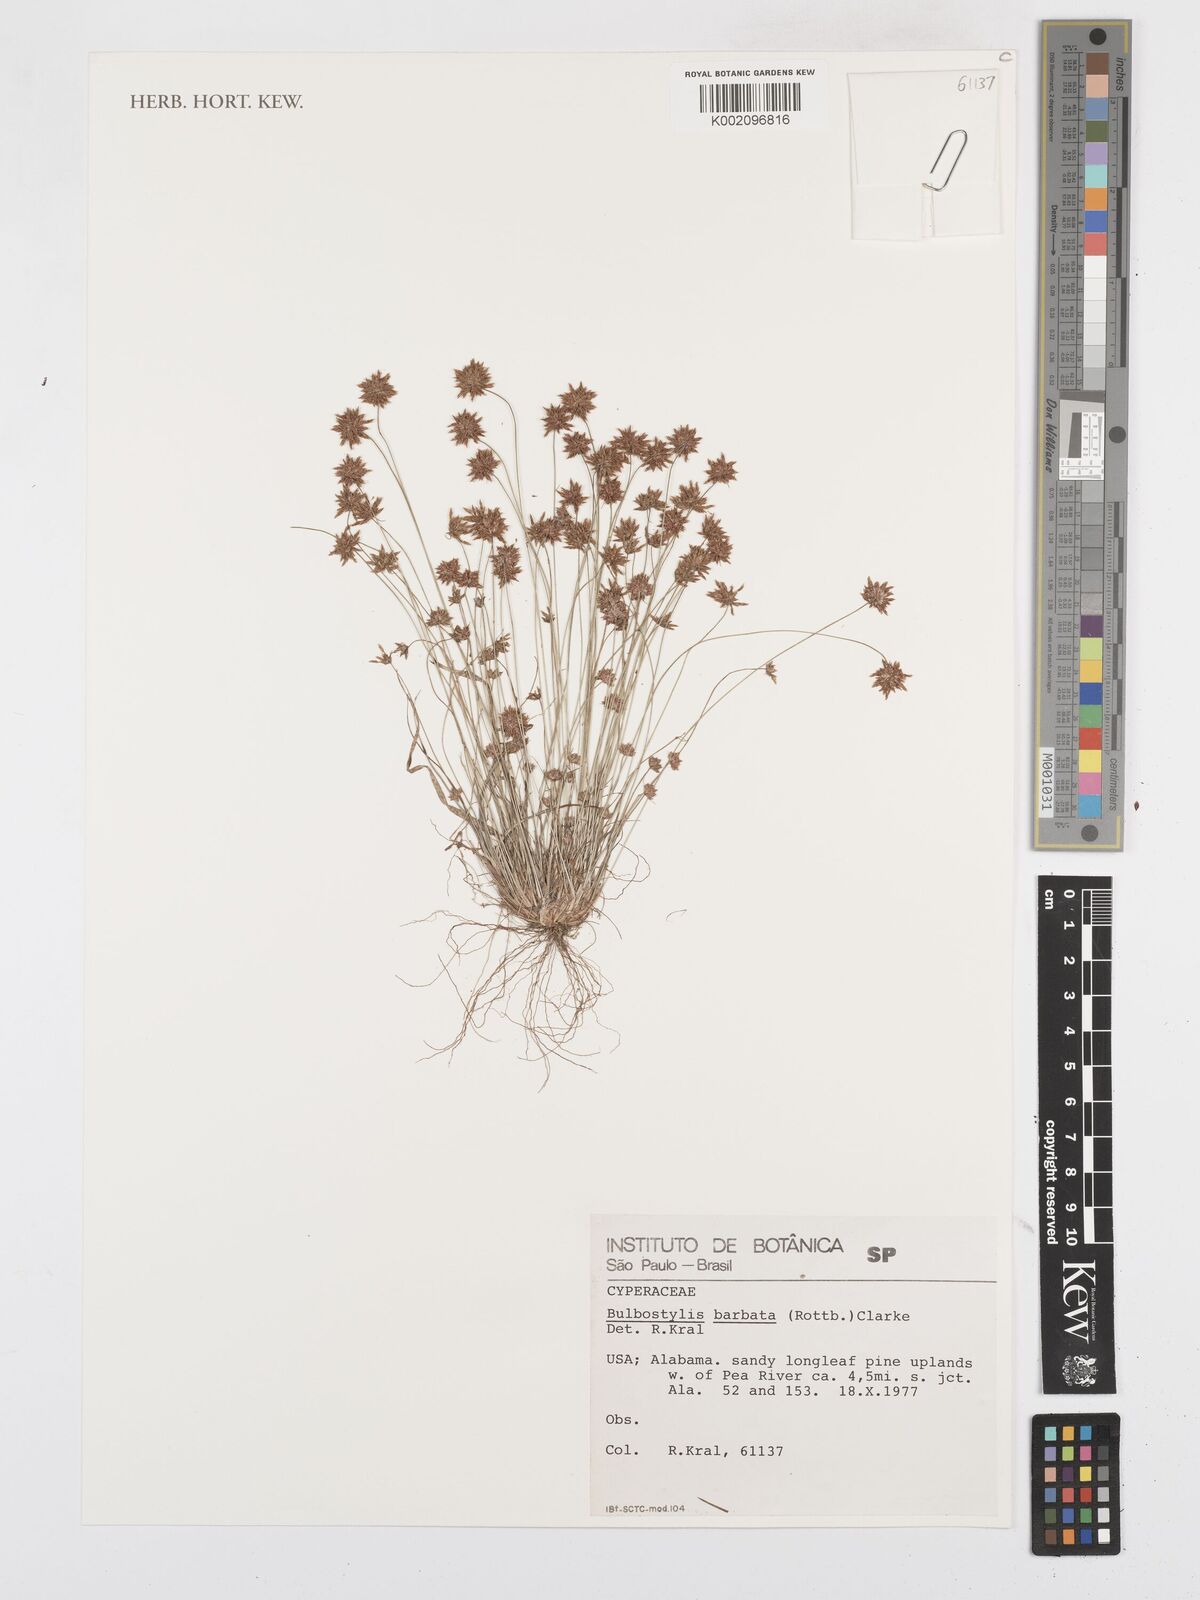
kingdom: Plantae
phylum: Tracheophyta
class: Liliopsida
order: Poales
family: Cyperaceae
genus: Bulbostylis
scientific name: Bulbostylis barbata
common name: Watergrass
